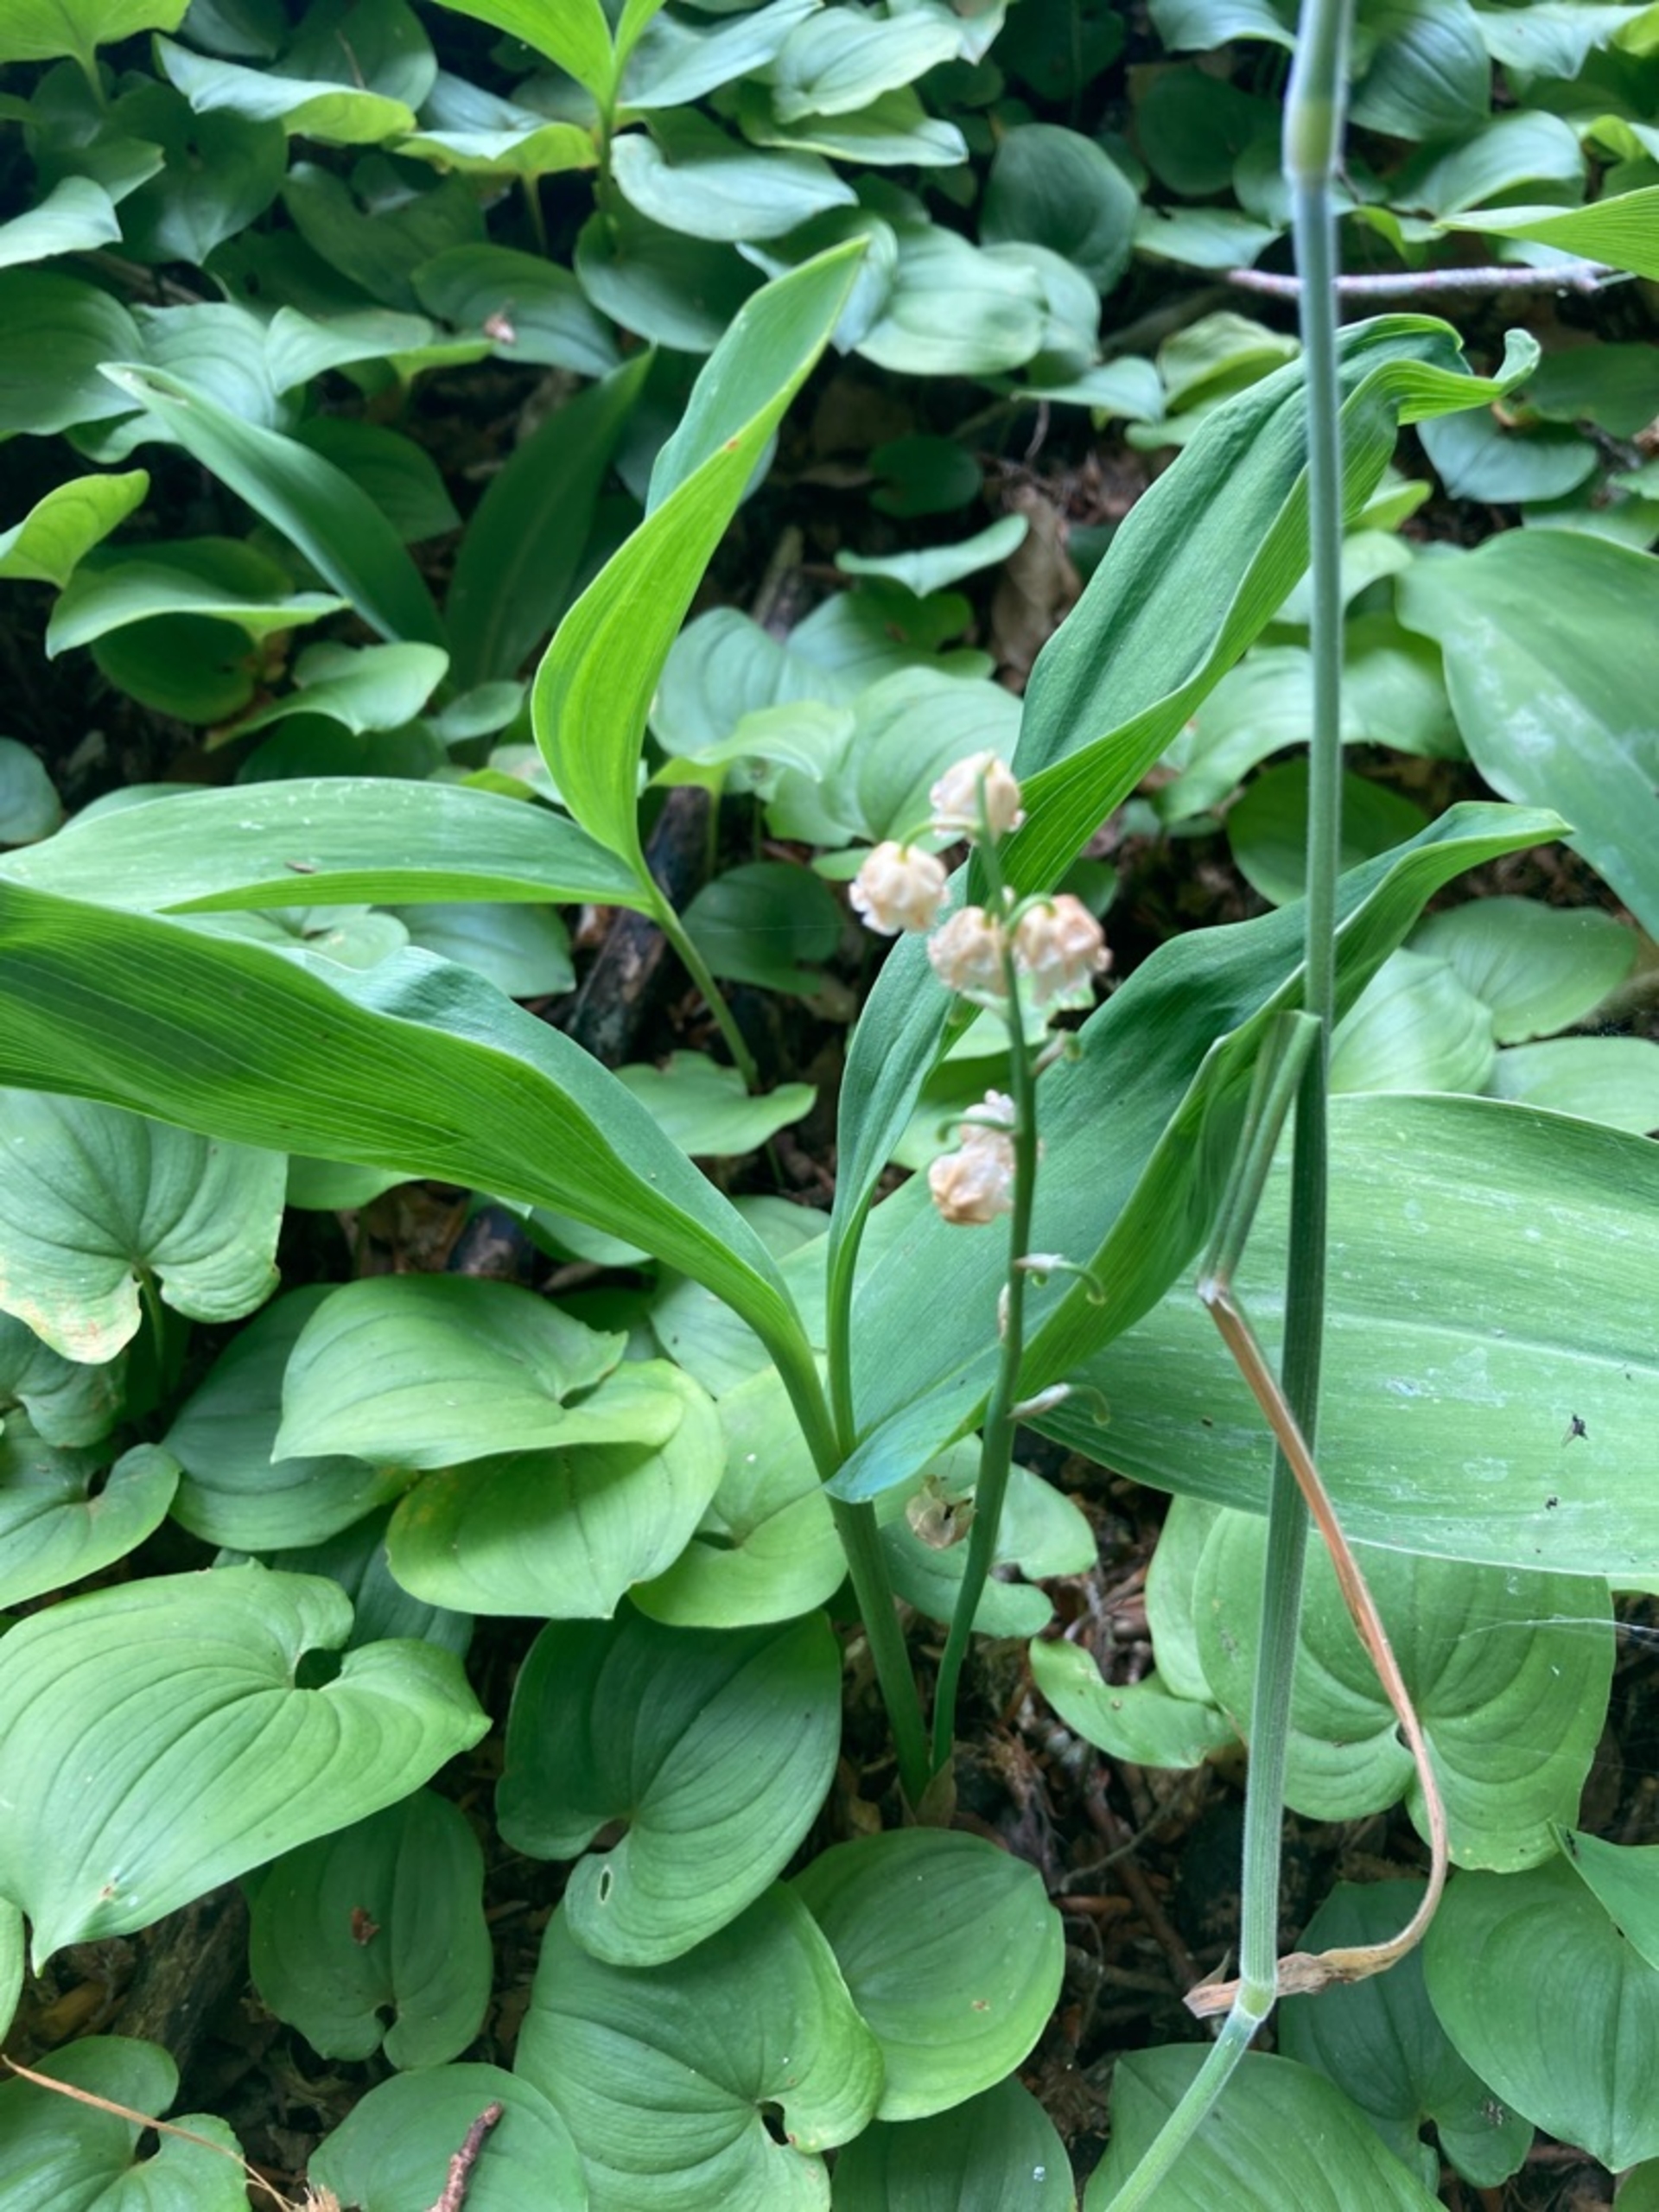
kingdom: Plantae
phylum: Tracheophyta
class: Liliopsida
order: Asparagales
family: Asparagaceae
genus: Convallaria
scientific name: Convallaria majalis
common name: Liljekonval
